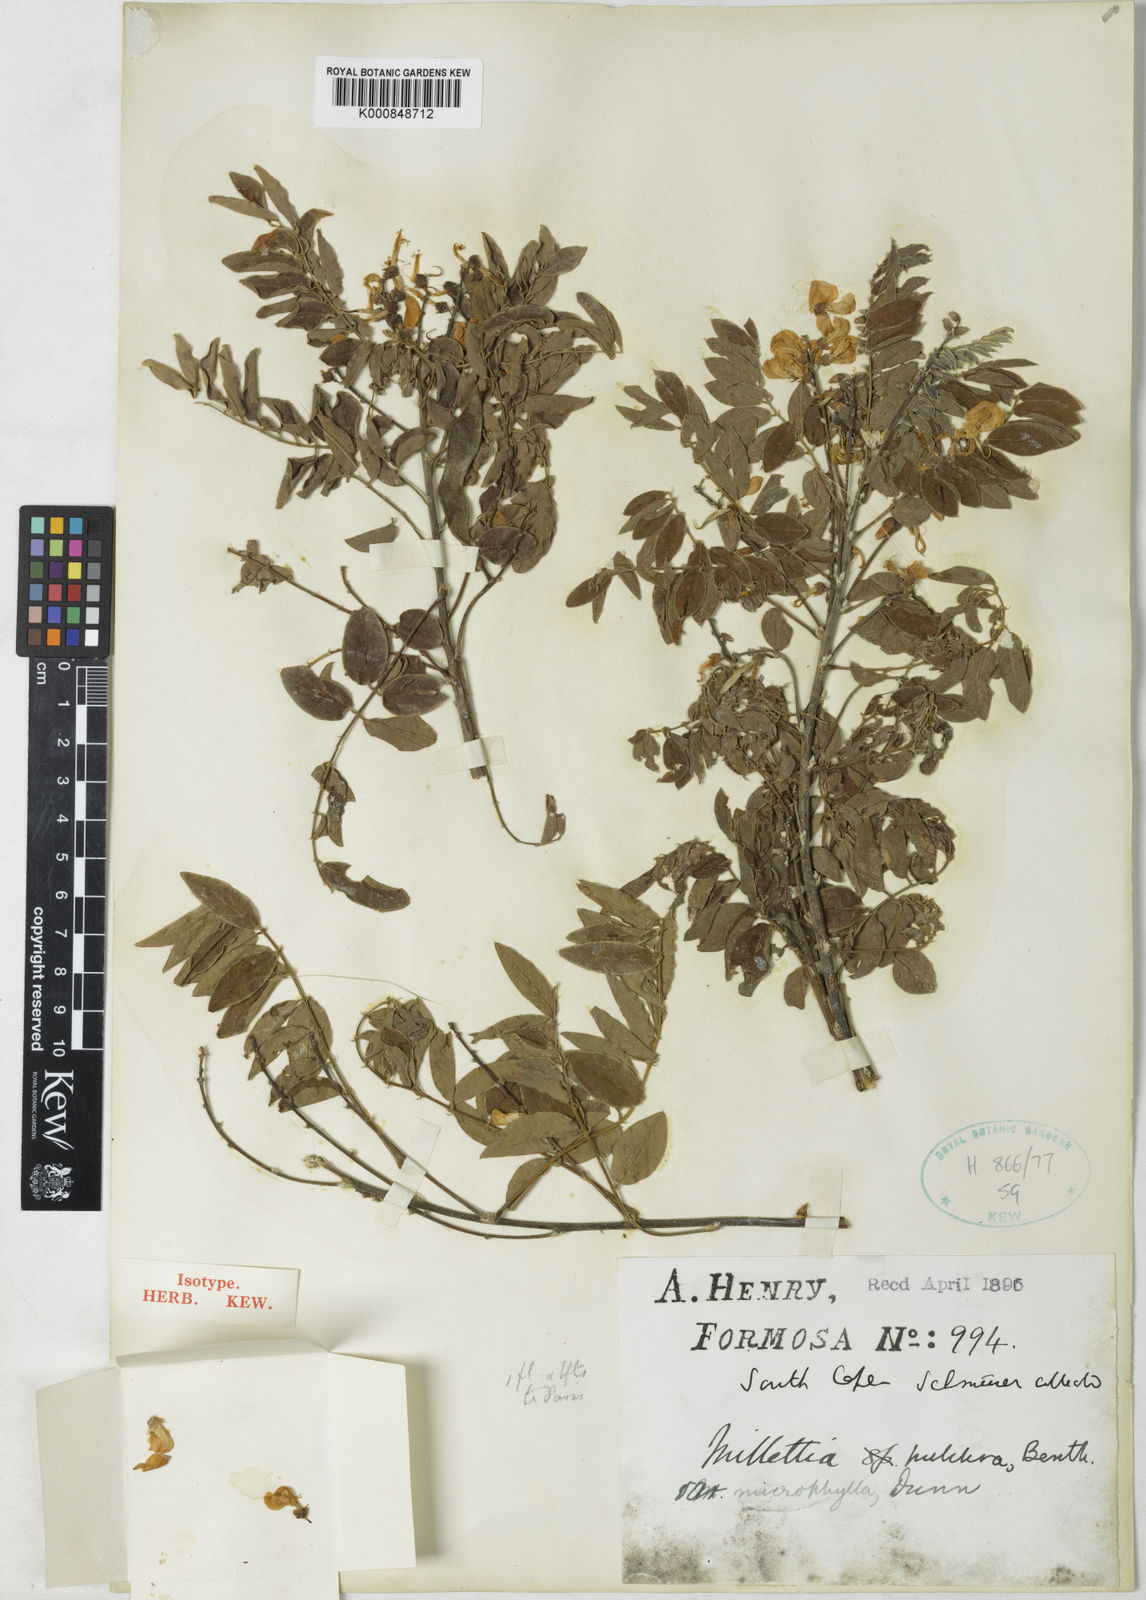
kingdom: Plantae
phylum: Tracheophyta
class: Magnoliopsida
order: Fabales
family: Fabaceae
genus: Millettia
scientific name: Millettia pulchra
